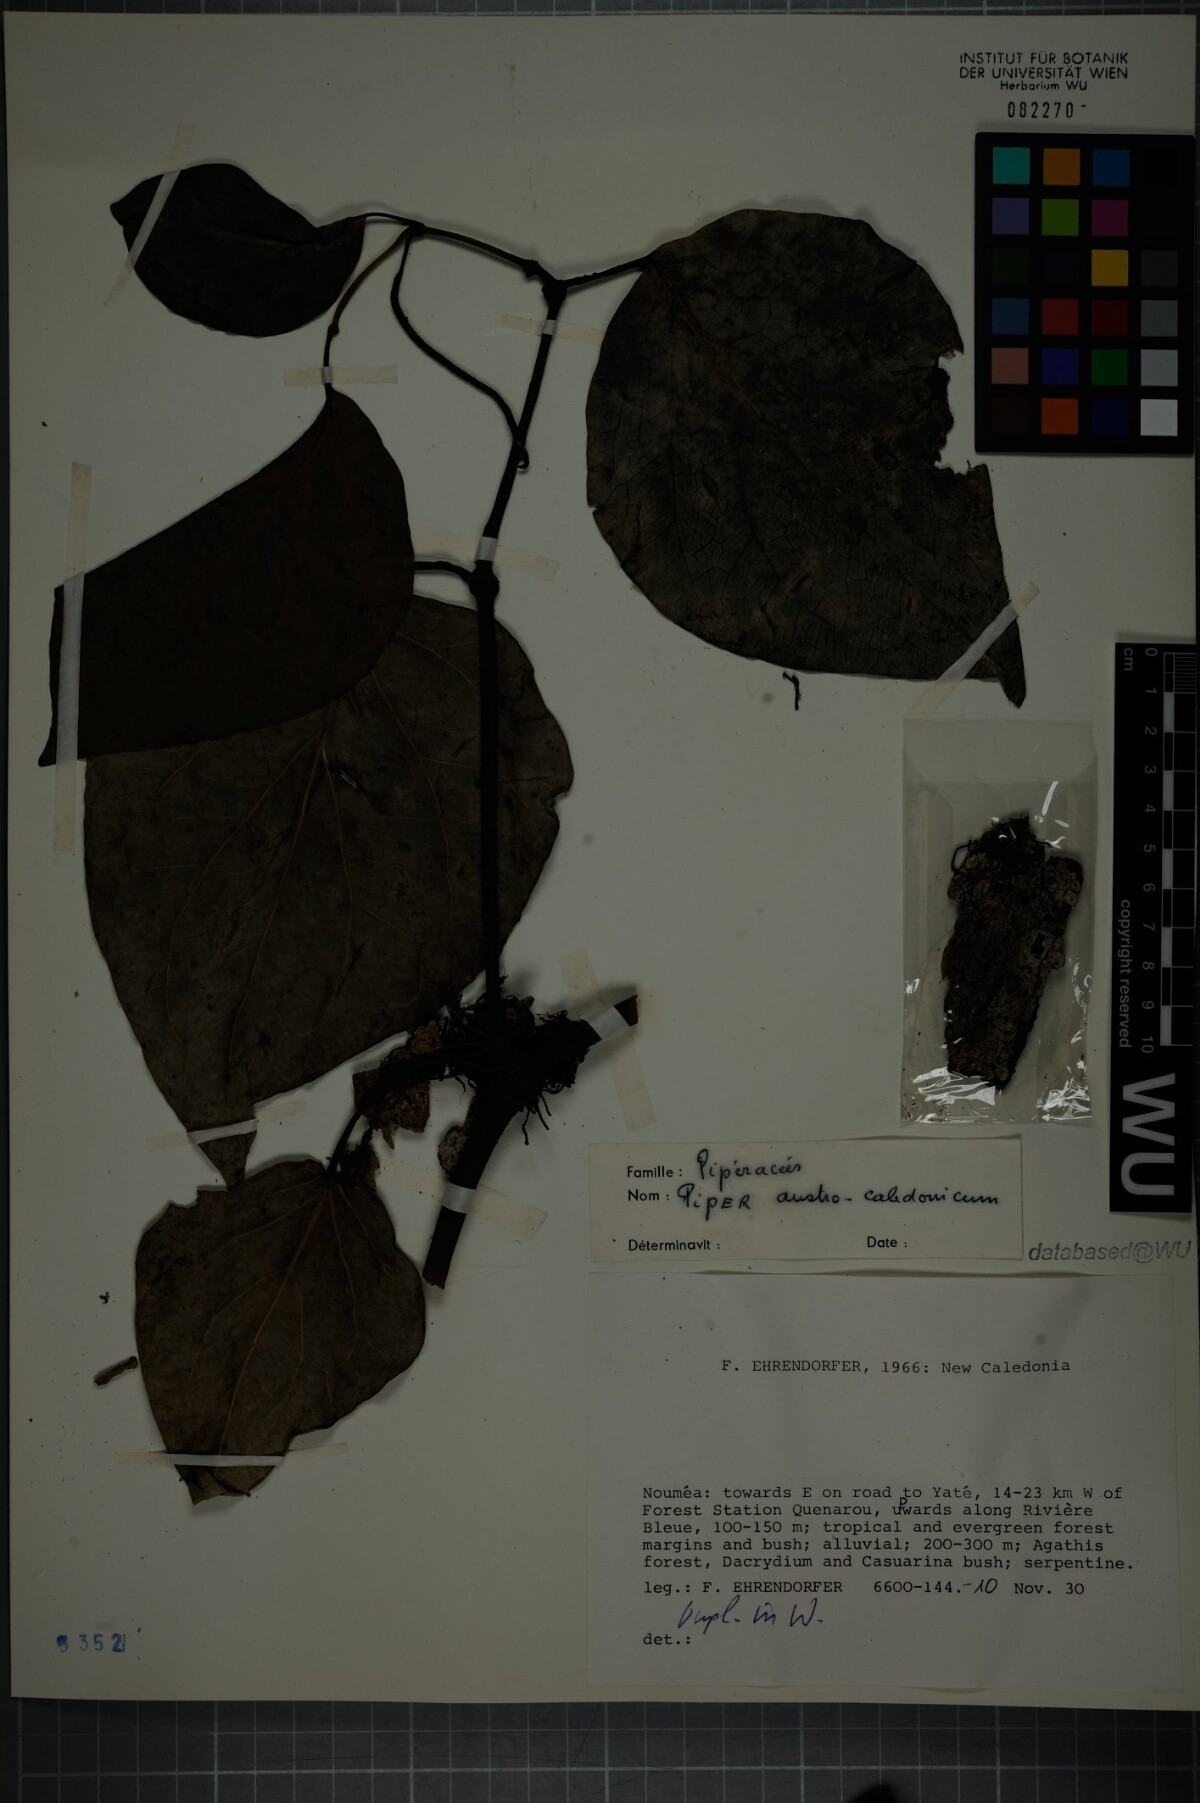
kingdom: Plantae
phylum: Tracheophyta
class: Magnoliopsida
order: Piperales
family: Piperaceae
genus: Piper
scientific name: Piper insectifugum
